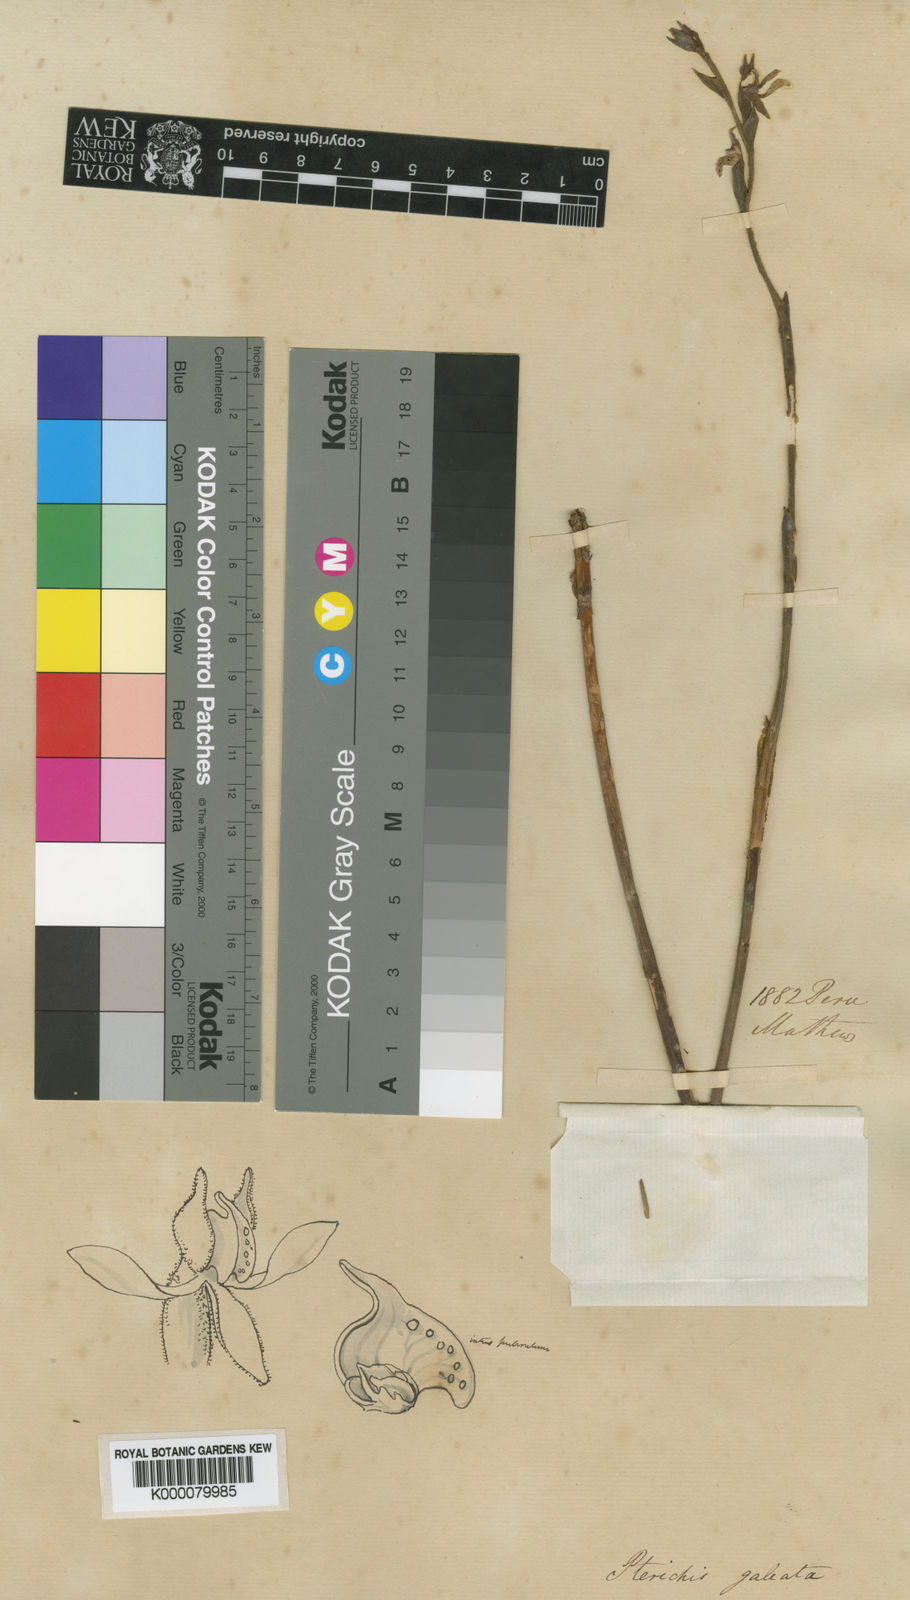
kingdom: Plantae
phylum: Tracheophyta
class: Liliopsida
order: Asparagales
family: Orchidaceae
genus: Pterichis
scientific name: Pterichis galeata
